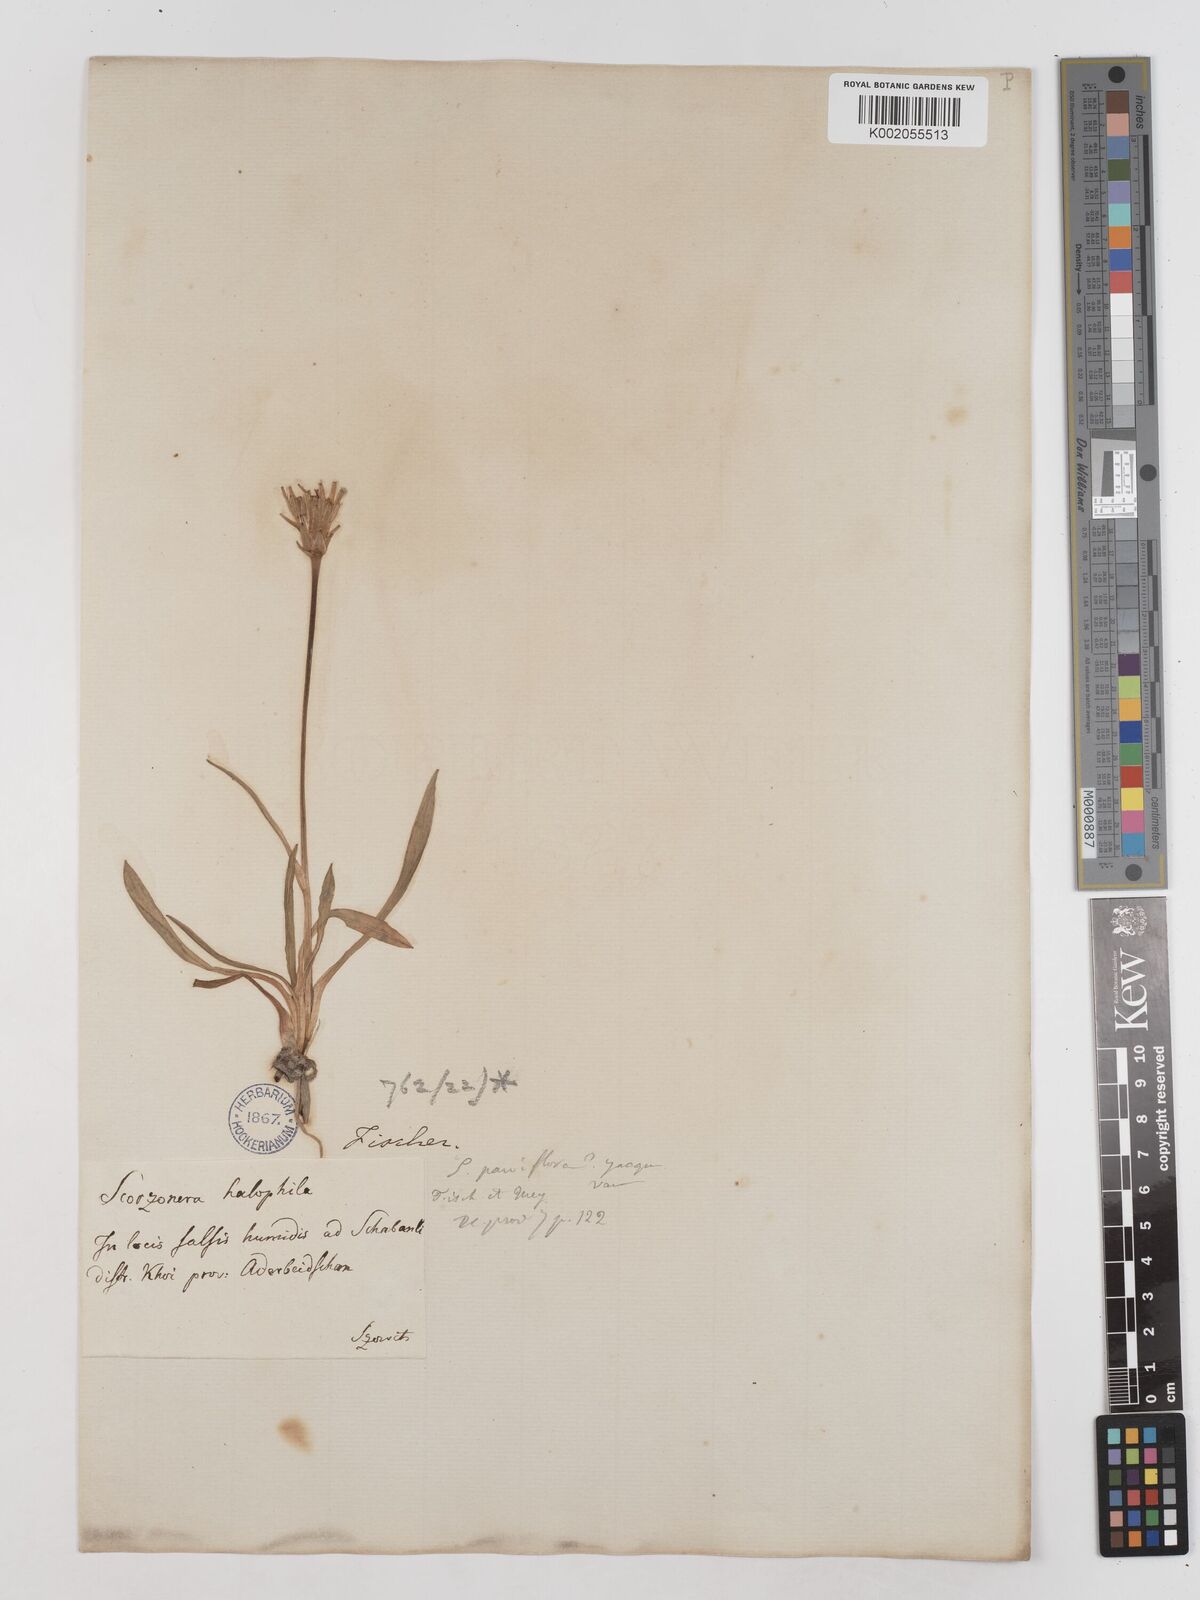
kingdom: Plantae
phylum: Tracheophyta
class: Magnoliopsida
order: Asterales
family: Asteraceae
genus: Scorzonera
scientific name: Scorzonera parviflora
